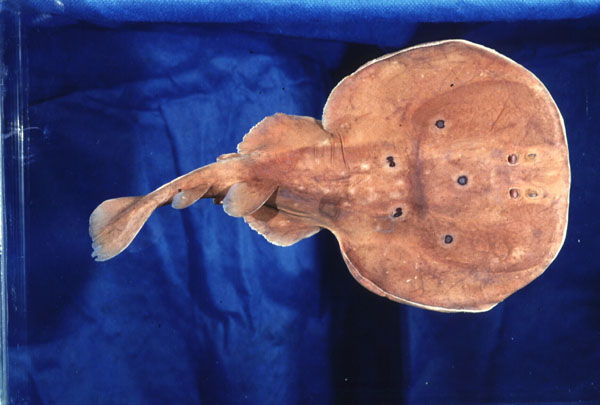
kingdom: Animalia
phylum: Chordata
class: Elasmobranchii
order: Torpediniformes
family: Torpedinidae
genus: Torpedo
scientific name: Torpedo torpedo
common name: Common torpedo
